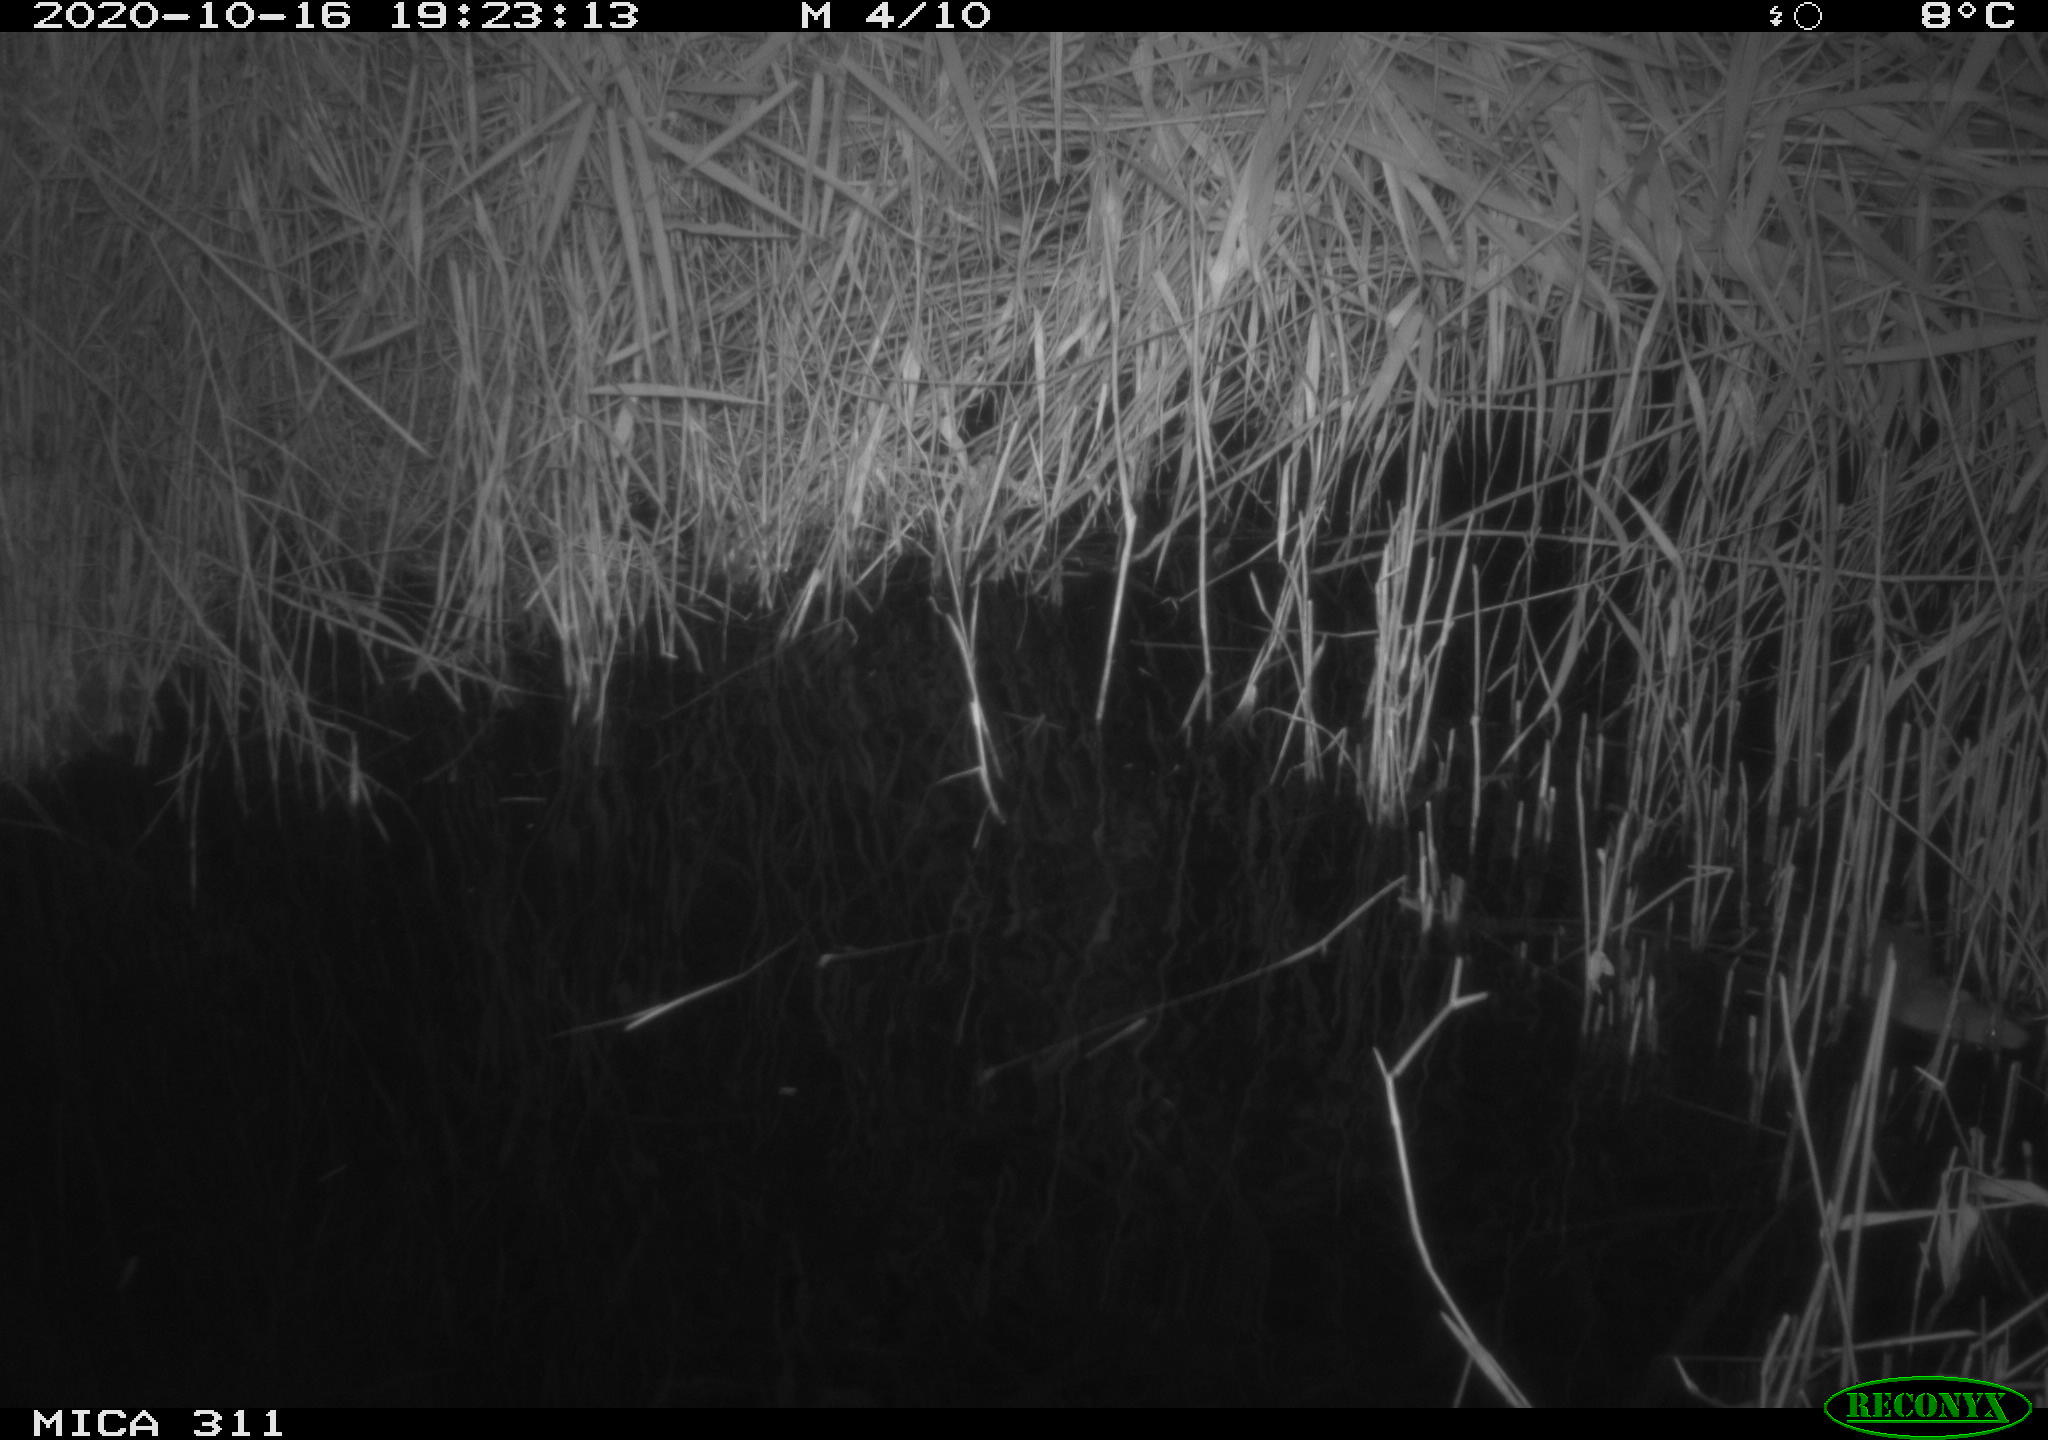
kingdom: Animalia
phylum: Chordata
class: Mammalia
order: Rodentia
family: Muridae
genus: Rattus
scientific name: Rattus norvegicus
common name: Brown rat
